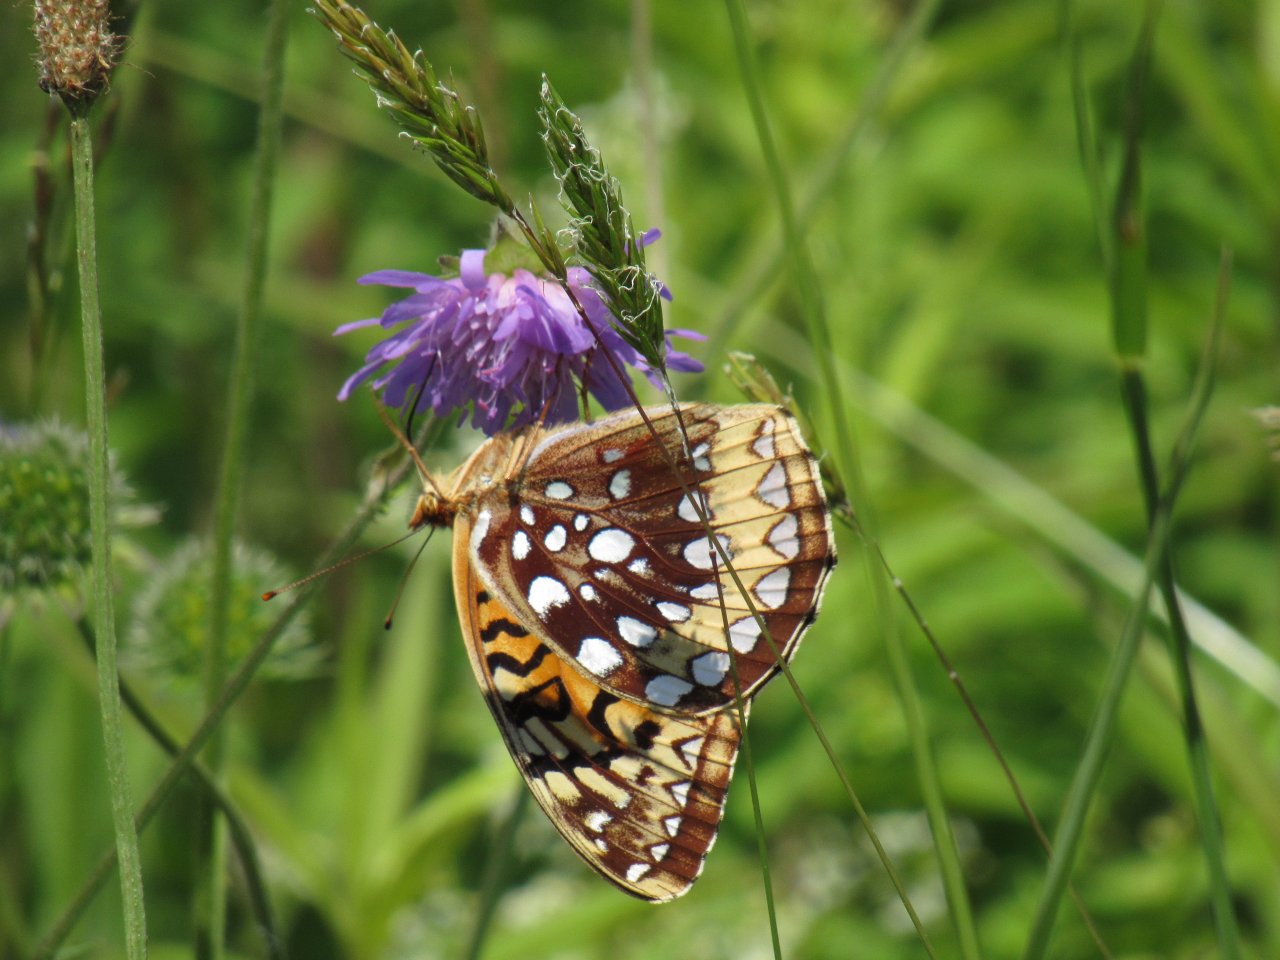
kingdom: Animalia
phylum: Arthropoda
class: Insecta
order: Lepidoptera
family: Nymphalidae
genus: Speyeria
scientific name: Speyeria cybele
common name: Great Spangled Fritillary
